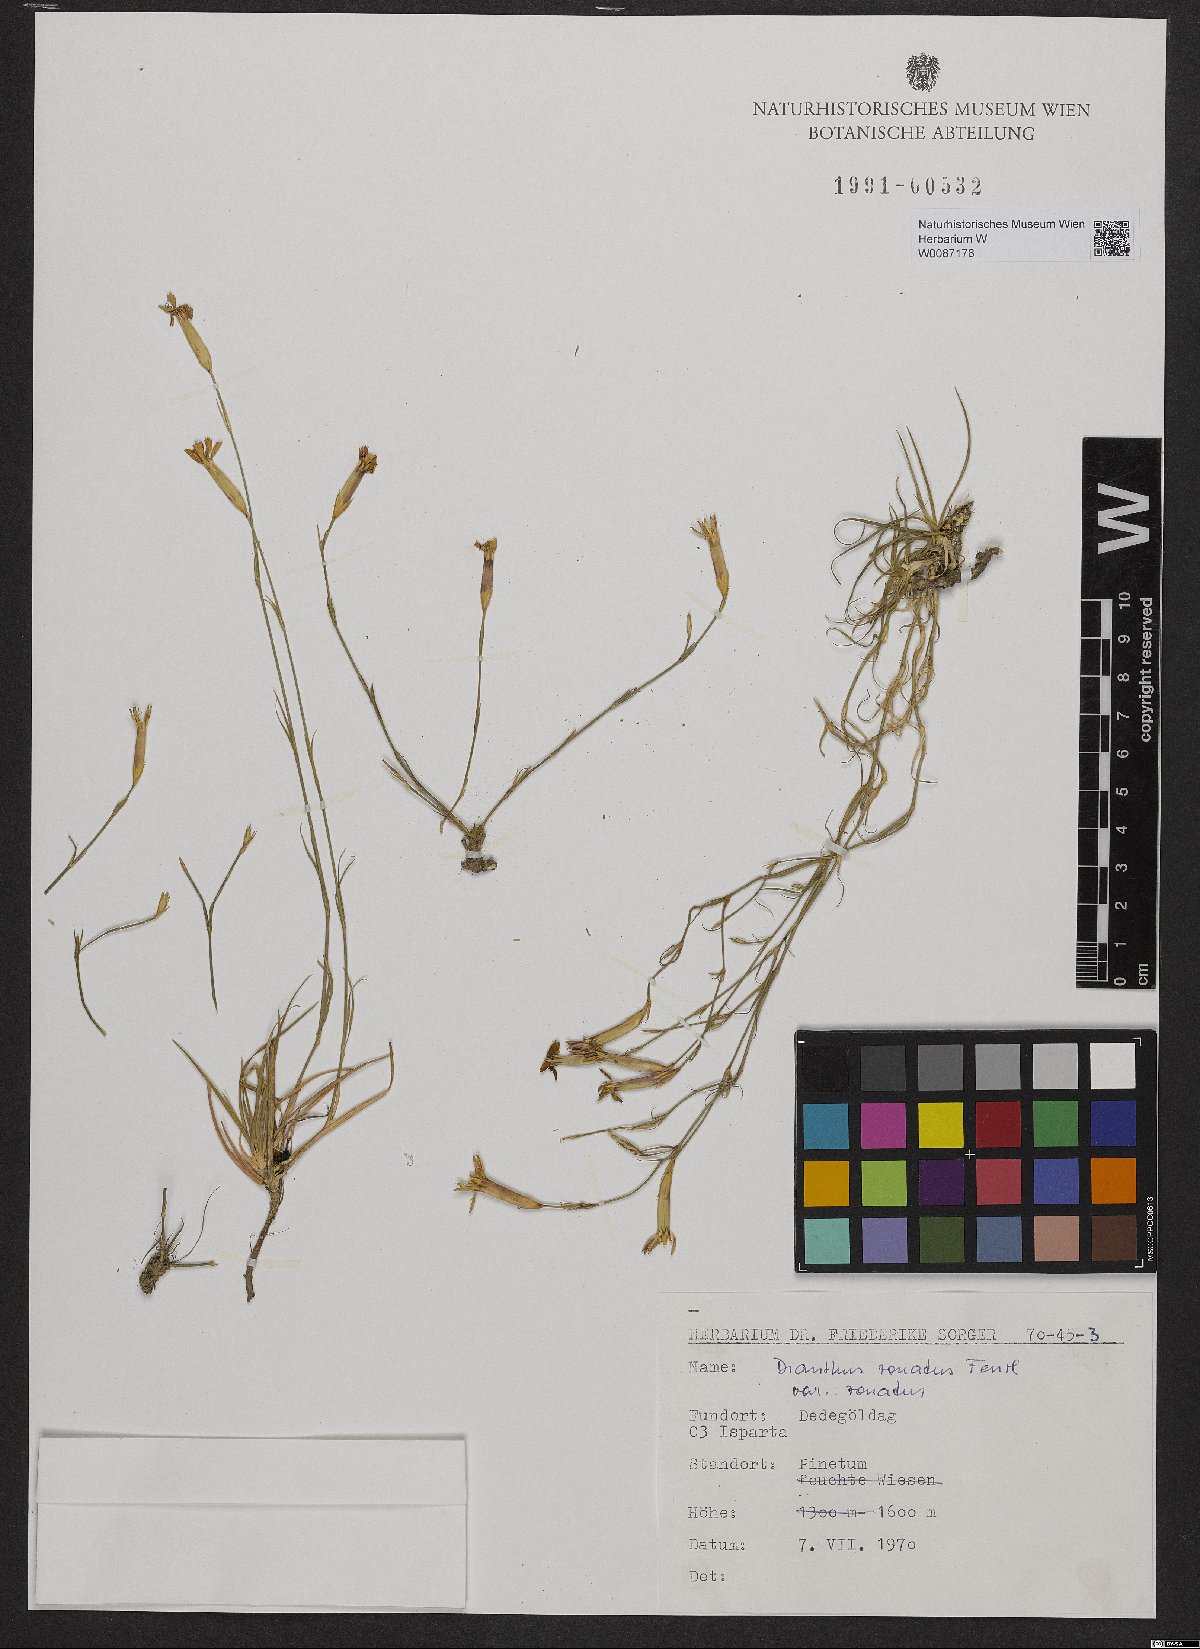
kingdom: Plantae
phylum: Tracheophyta
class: Magnoliopsida
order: Caryophyllales
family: Caryophyllaceae
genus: Dianthus
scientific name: Dianthus zonatus
